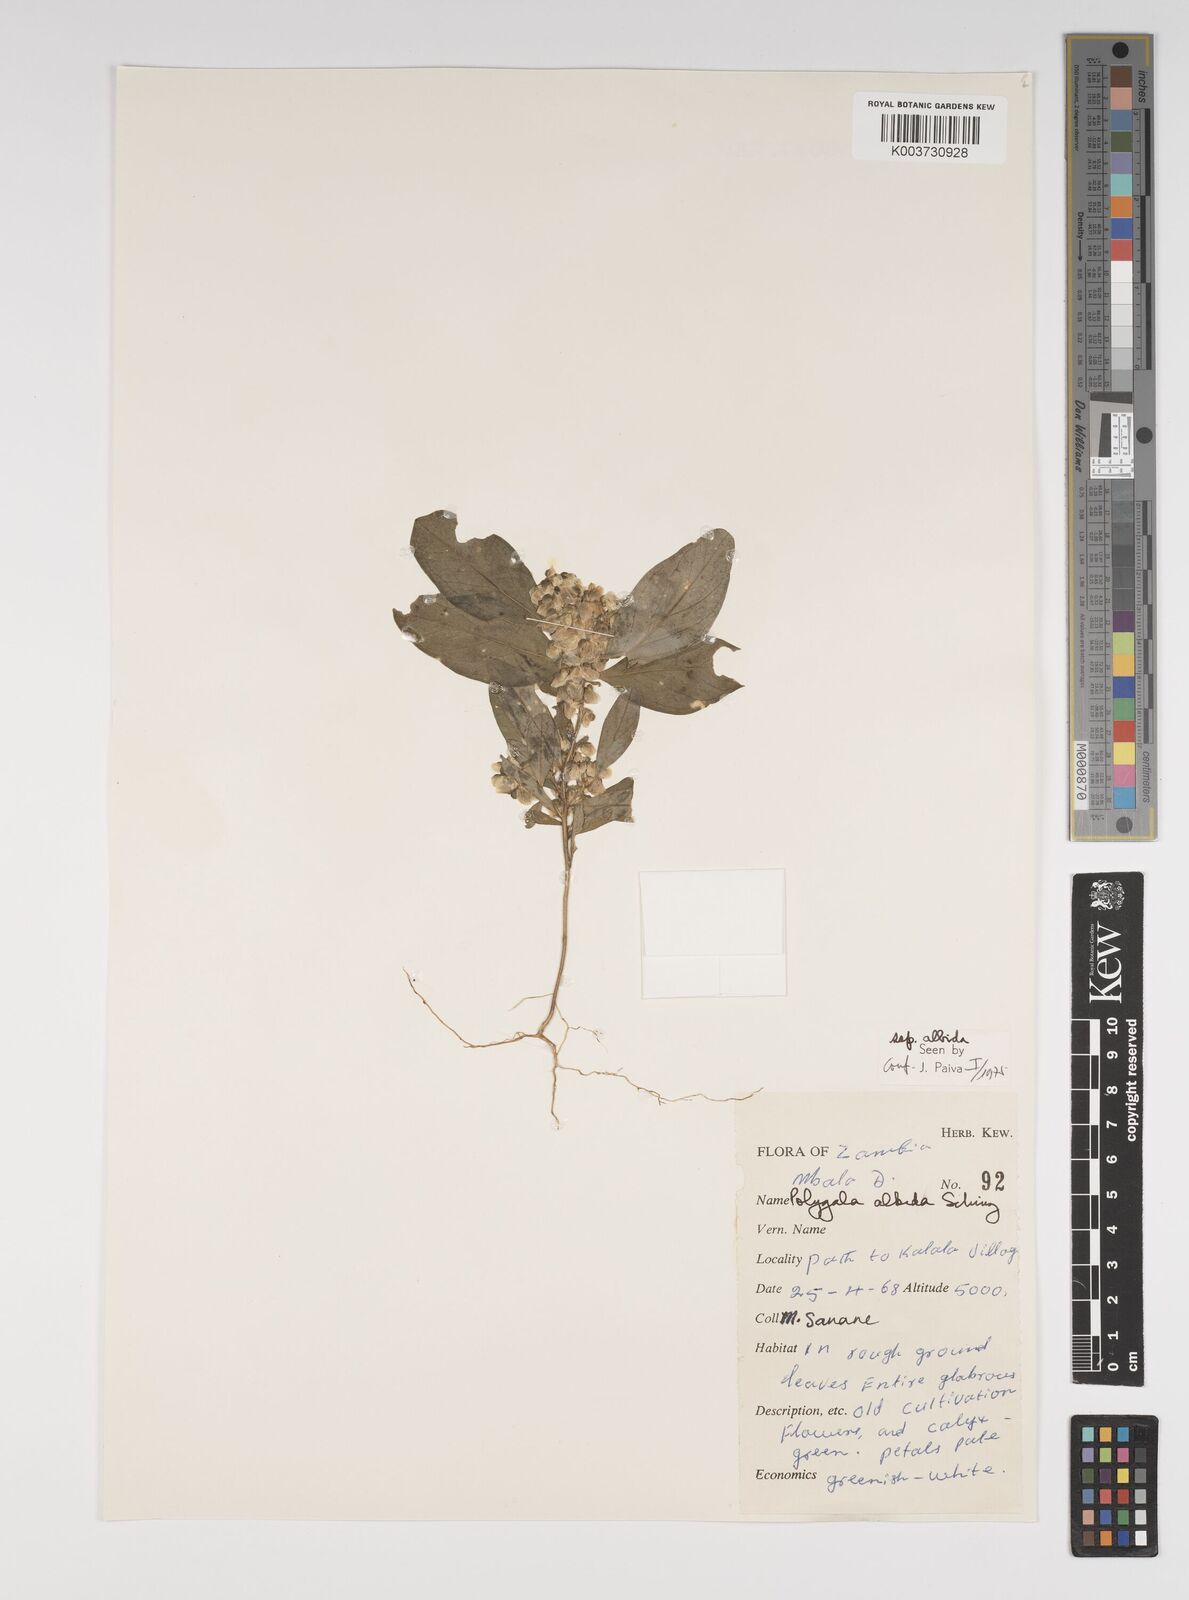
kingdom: Plantae
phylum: Tracheophyta
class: Magnoliopsida
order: Fabales
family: Polygalaceae
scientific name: Polygalaceae
